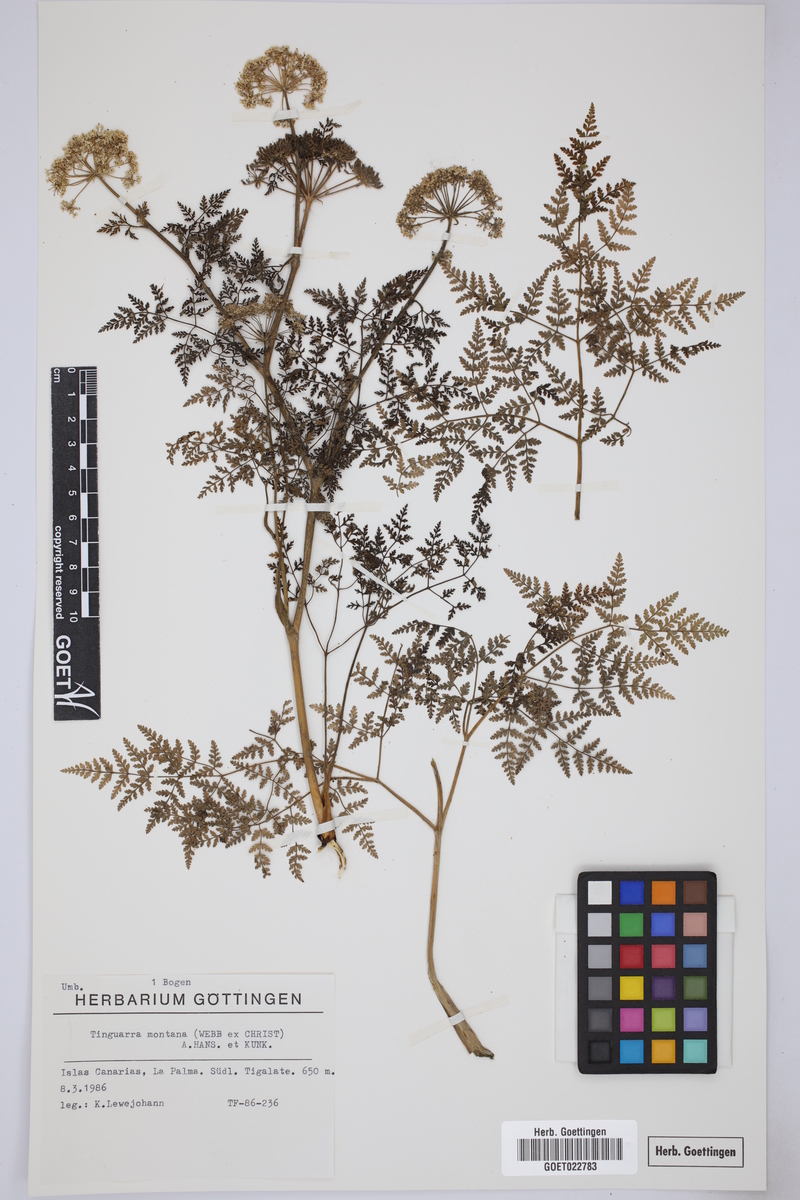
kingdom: Plantae
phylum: Tracheophyta
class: Magnoliopsida
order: Apiales
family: Apiaceae
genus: Athamanta
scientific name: Athamanta montana
